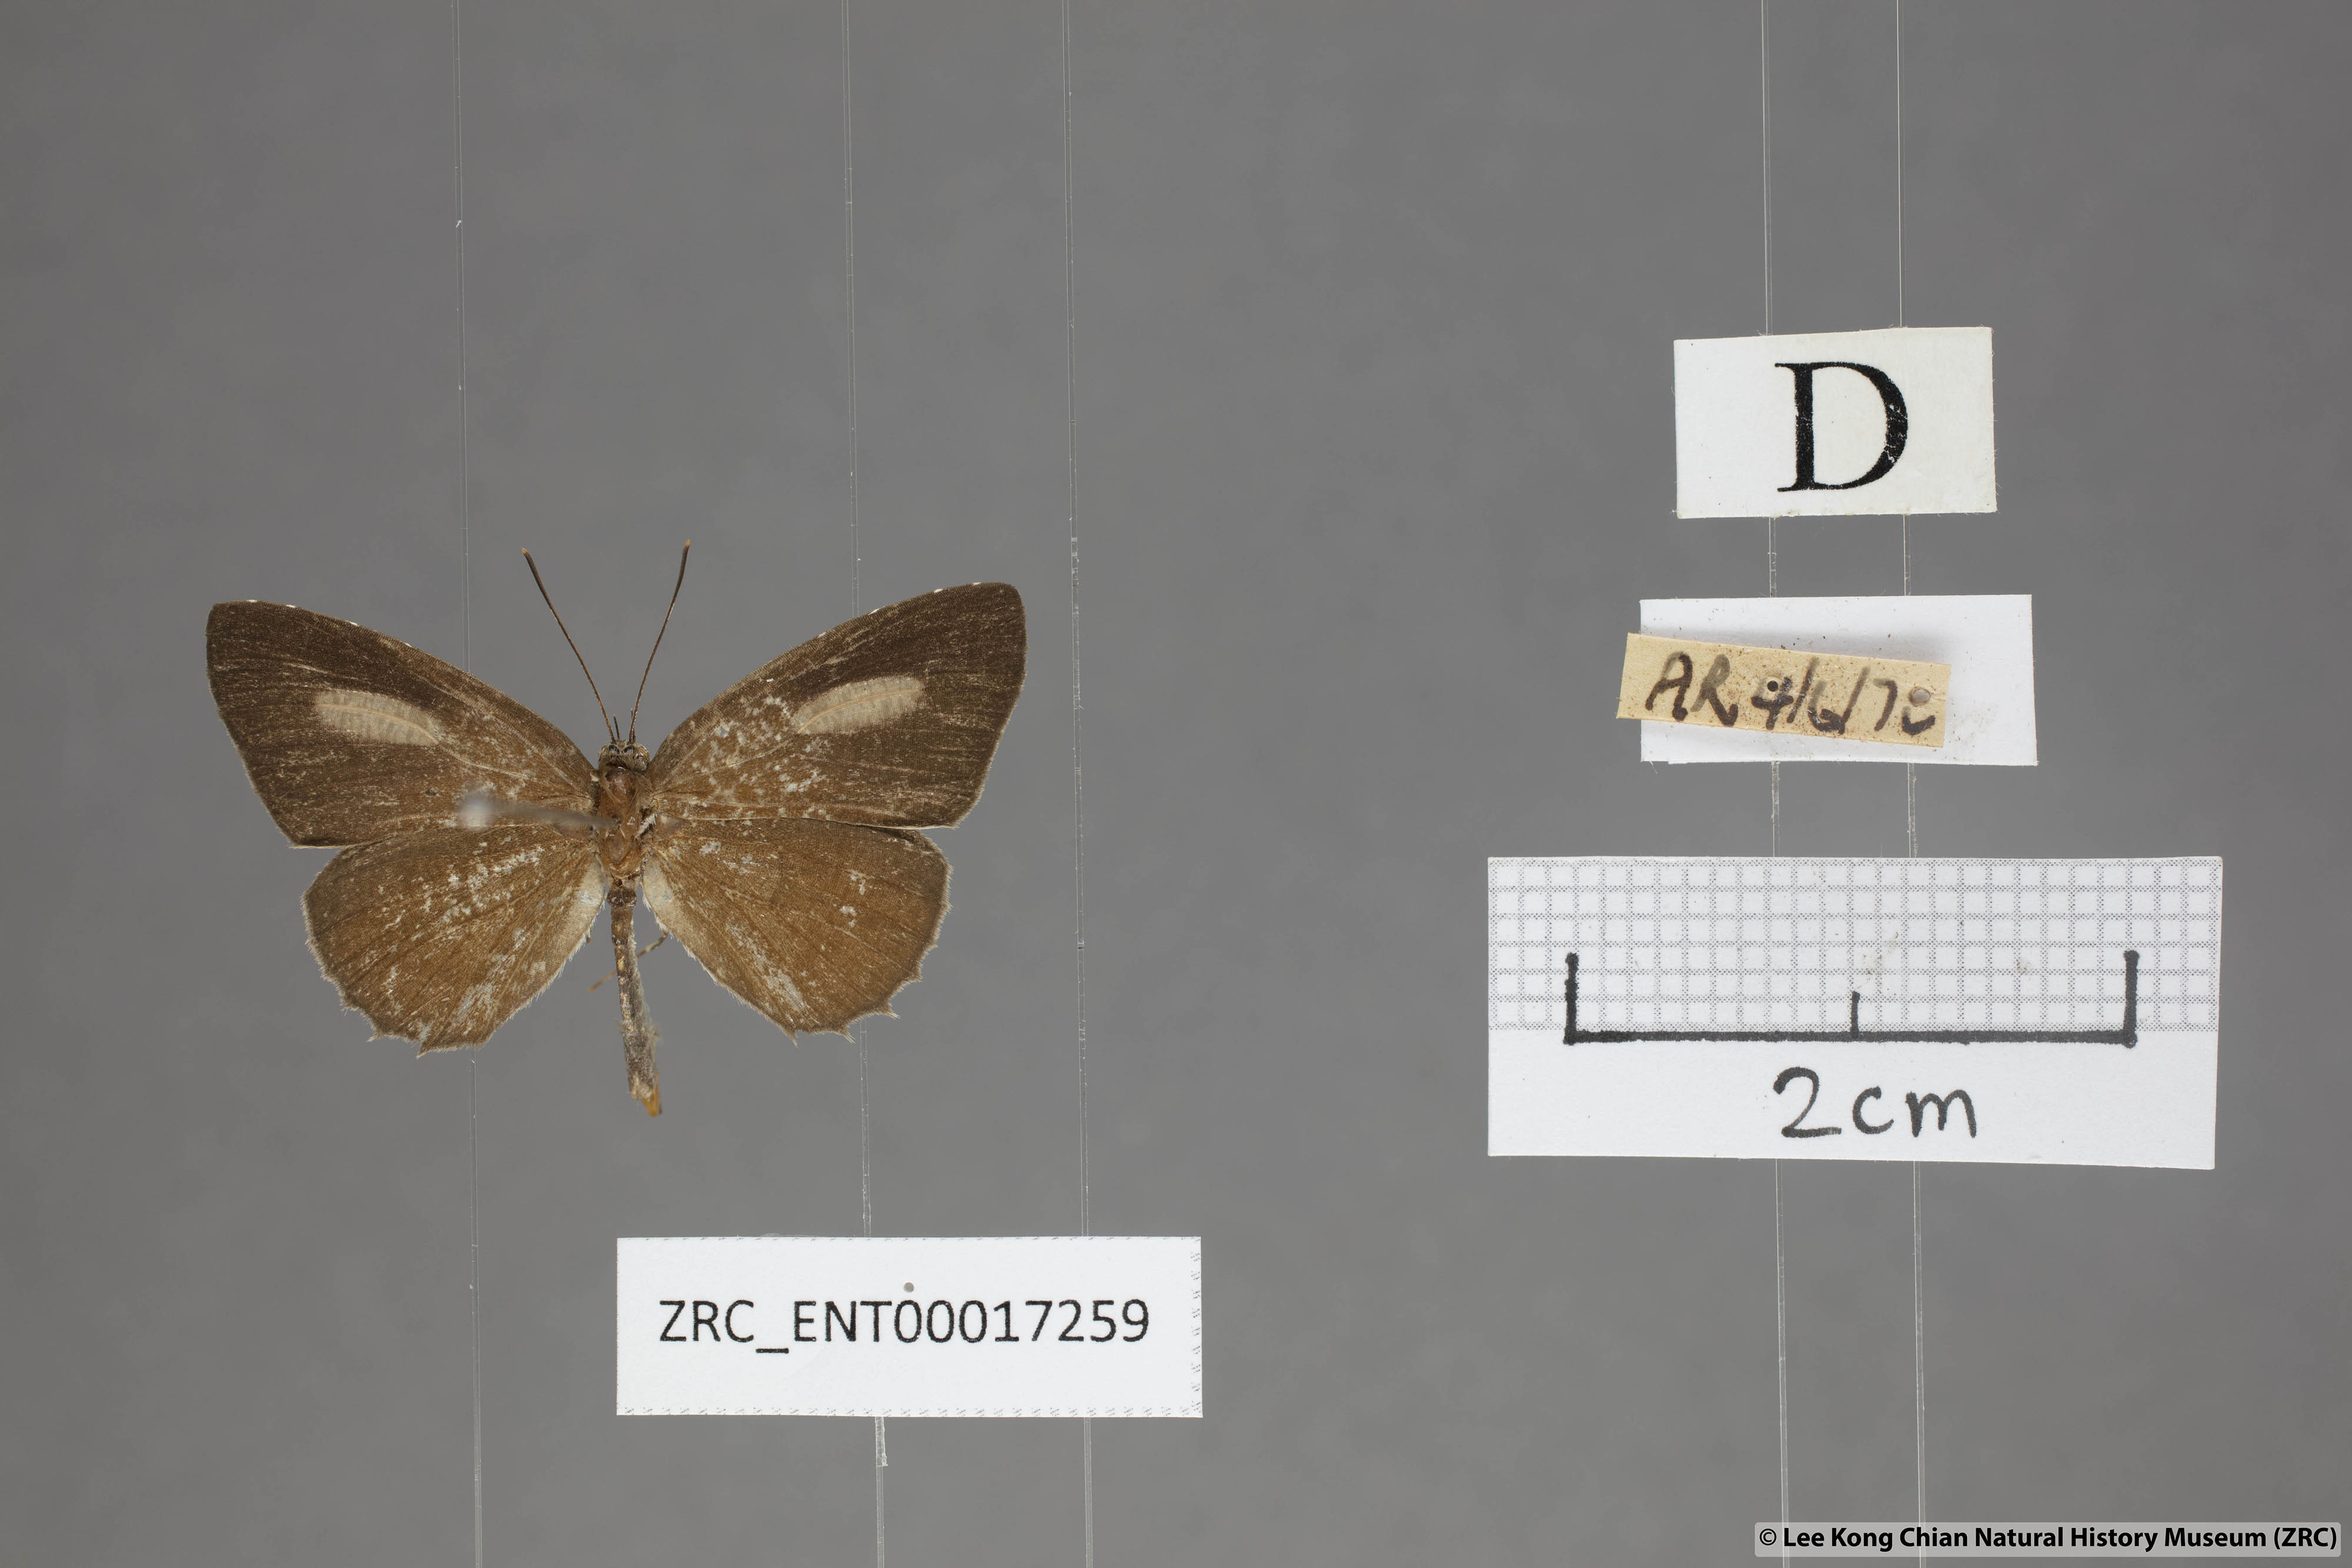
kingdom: Animalia
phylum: Arthropoda
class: Insecta
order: Lepidoptera
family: Lycaenidae
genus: Allotinus
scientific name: Allotinus leogoron
